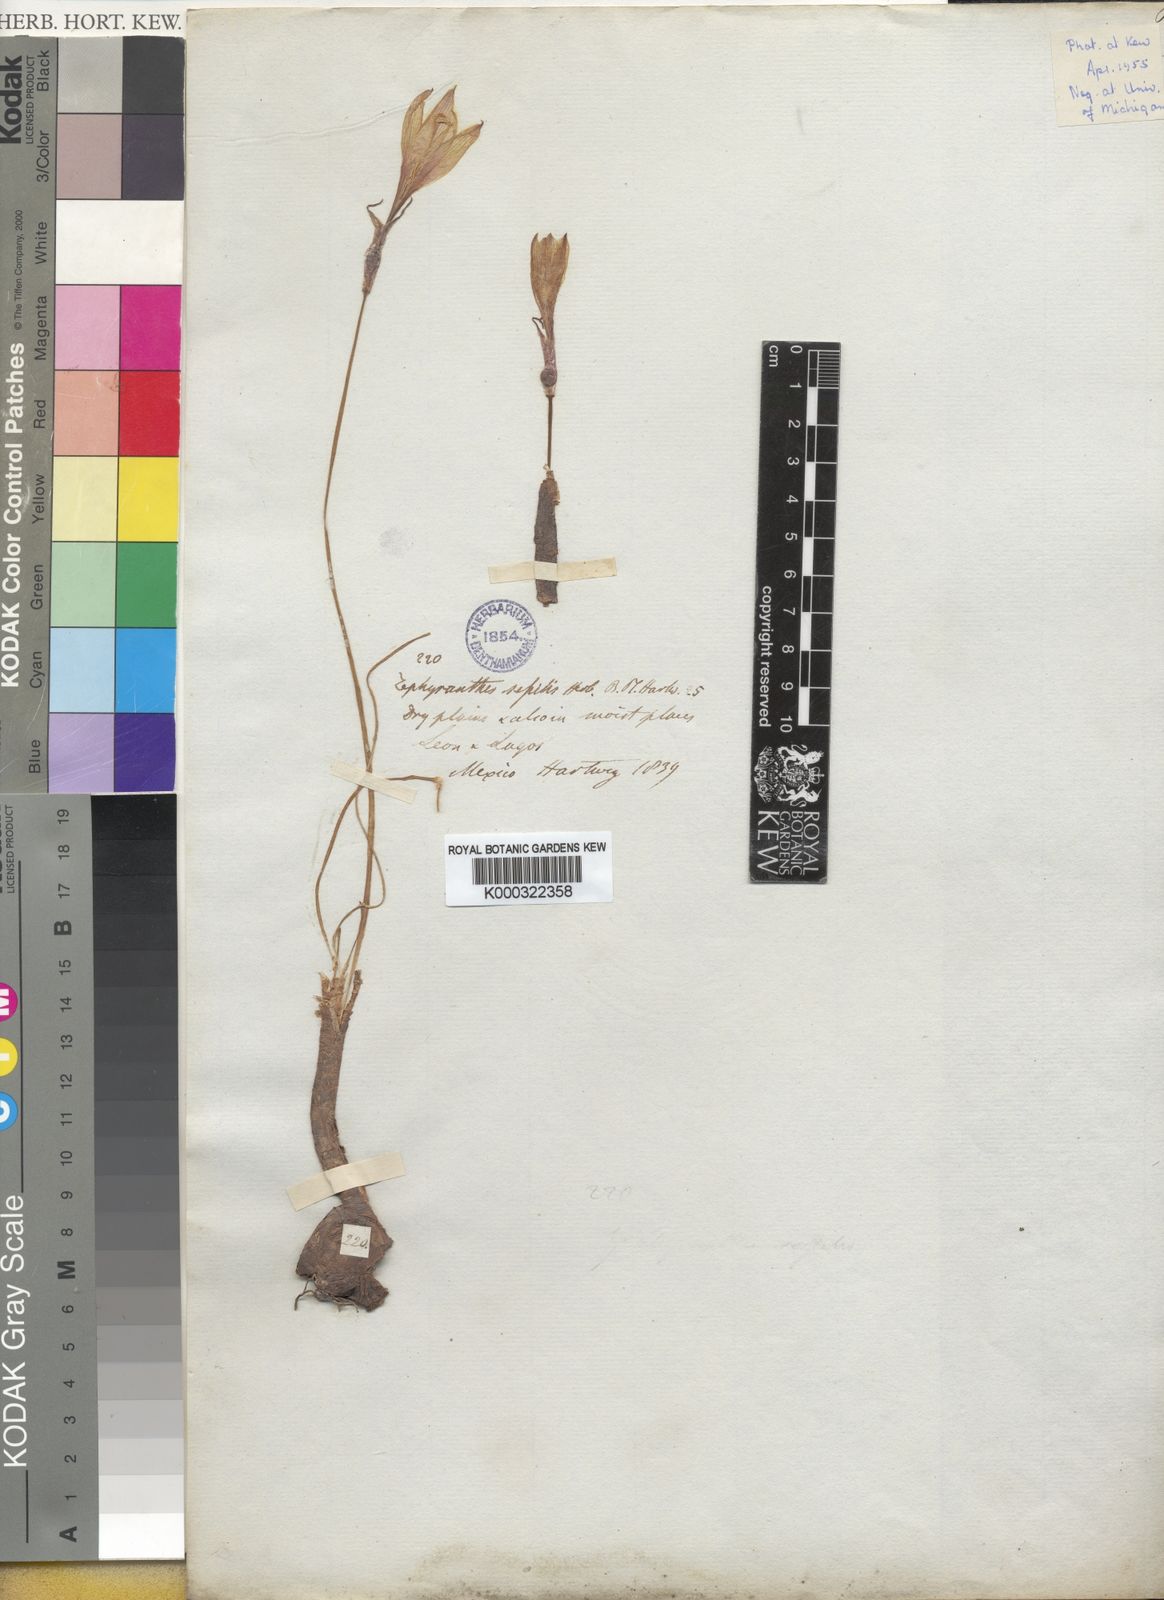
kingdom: Plantae
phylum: Tracheophyta
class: Liliopsida
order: Asparagales
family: Amaryllidaceae
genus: Zephyranthes
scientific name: Zephyranthes minuta
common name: Pink rain lily
